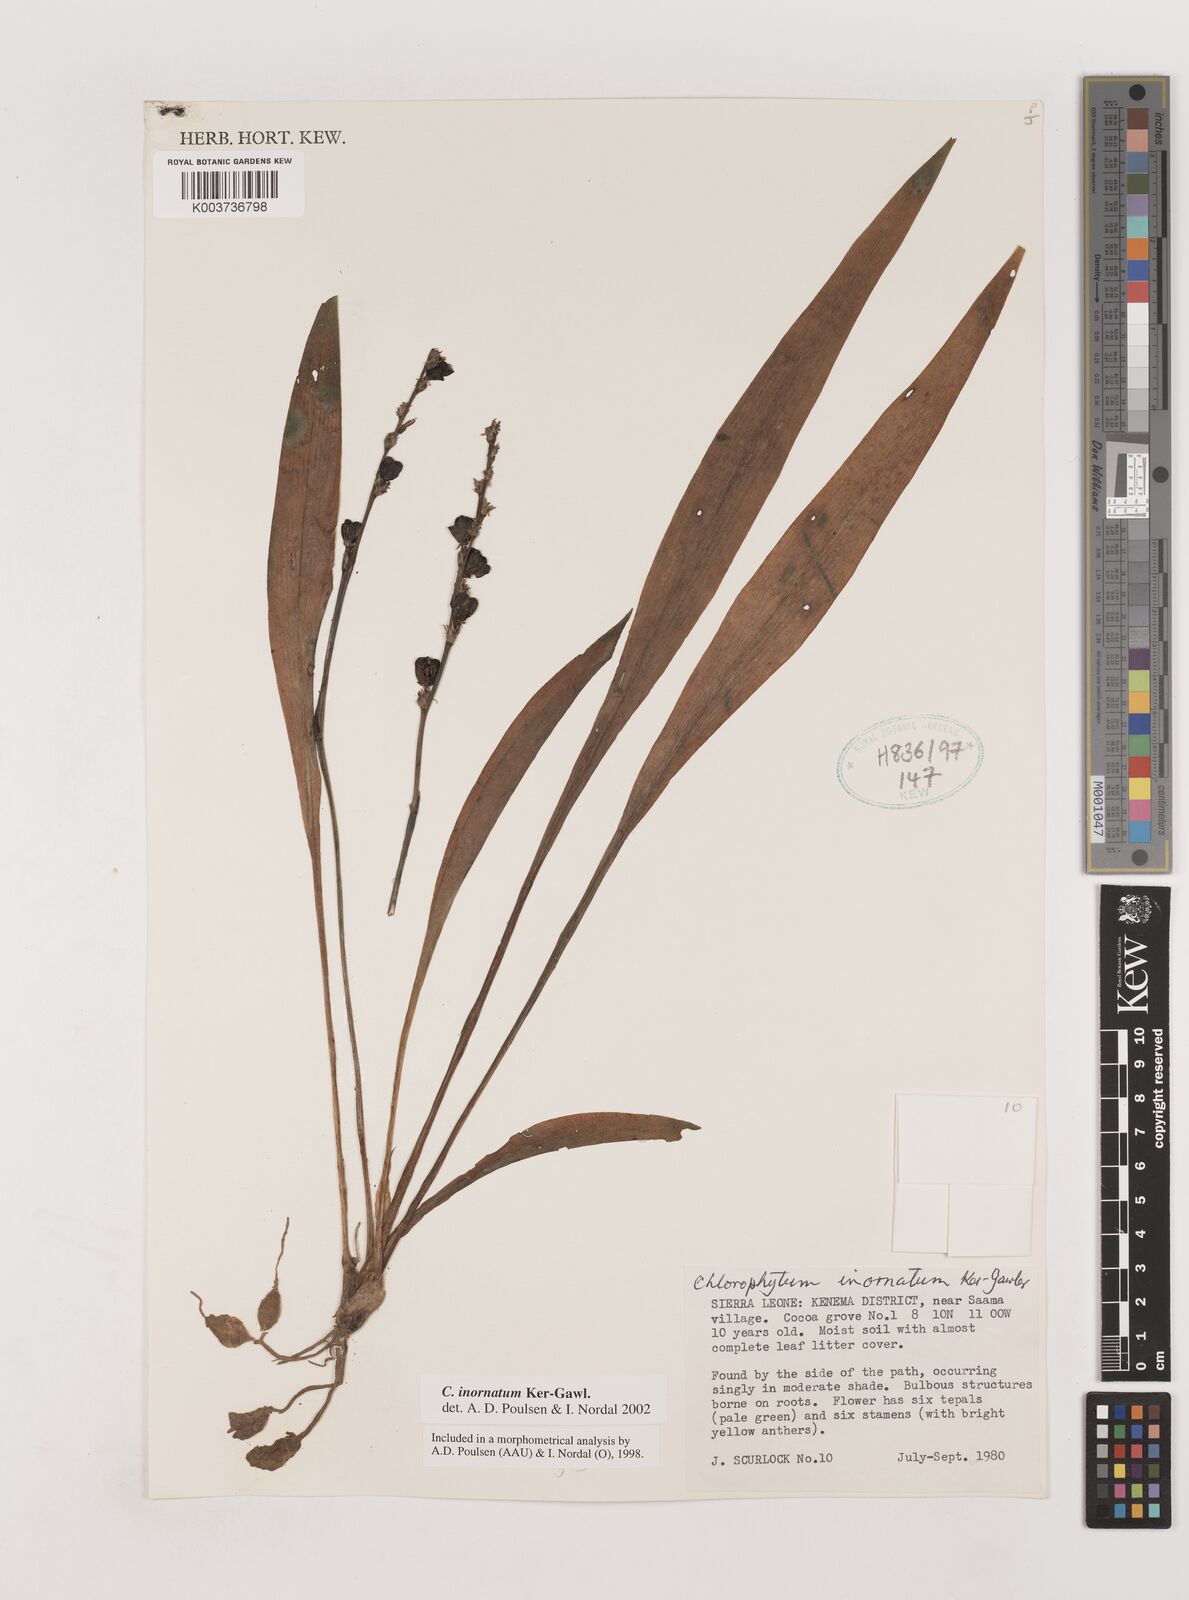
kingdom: Plantae
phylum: Tracheophyta
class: Liliopsida
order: Asparagales
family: Asparagaceae
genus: Chlorophytum
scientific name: Chlorophytum inornatum
